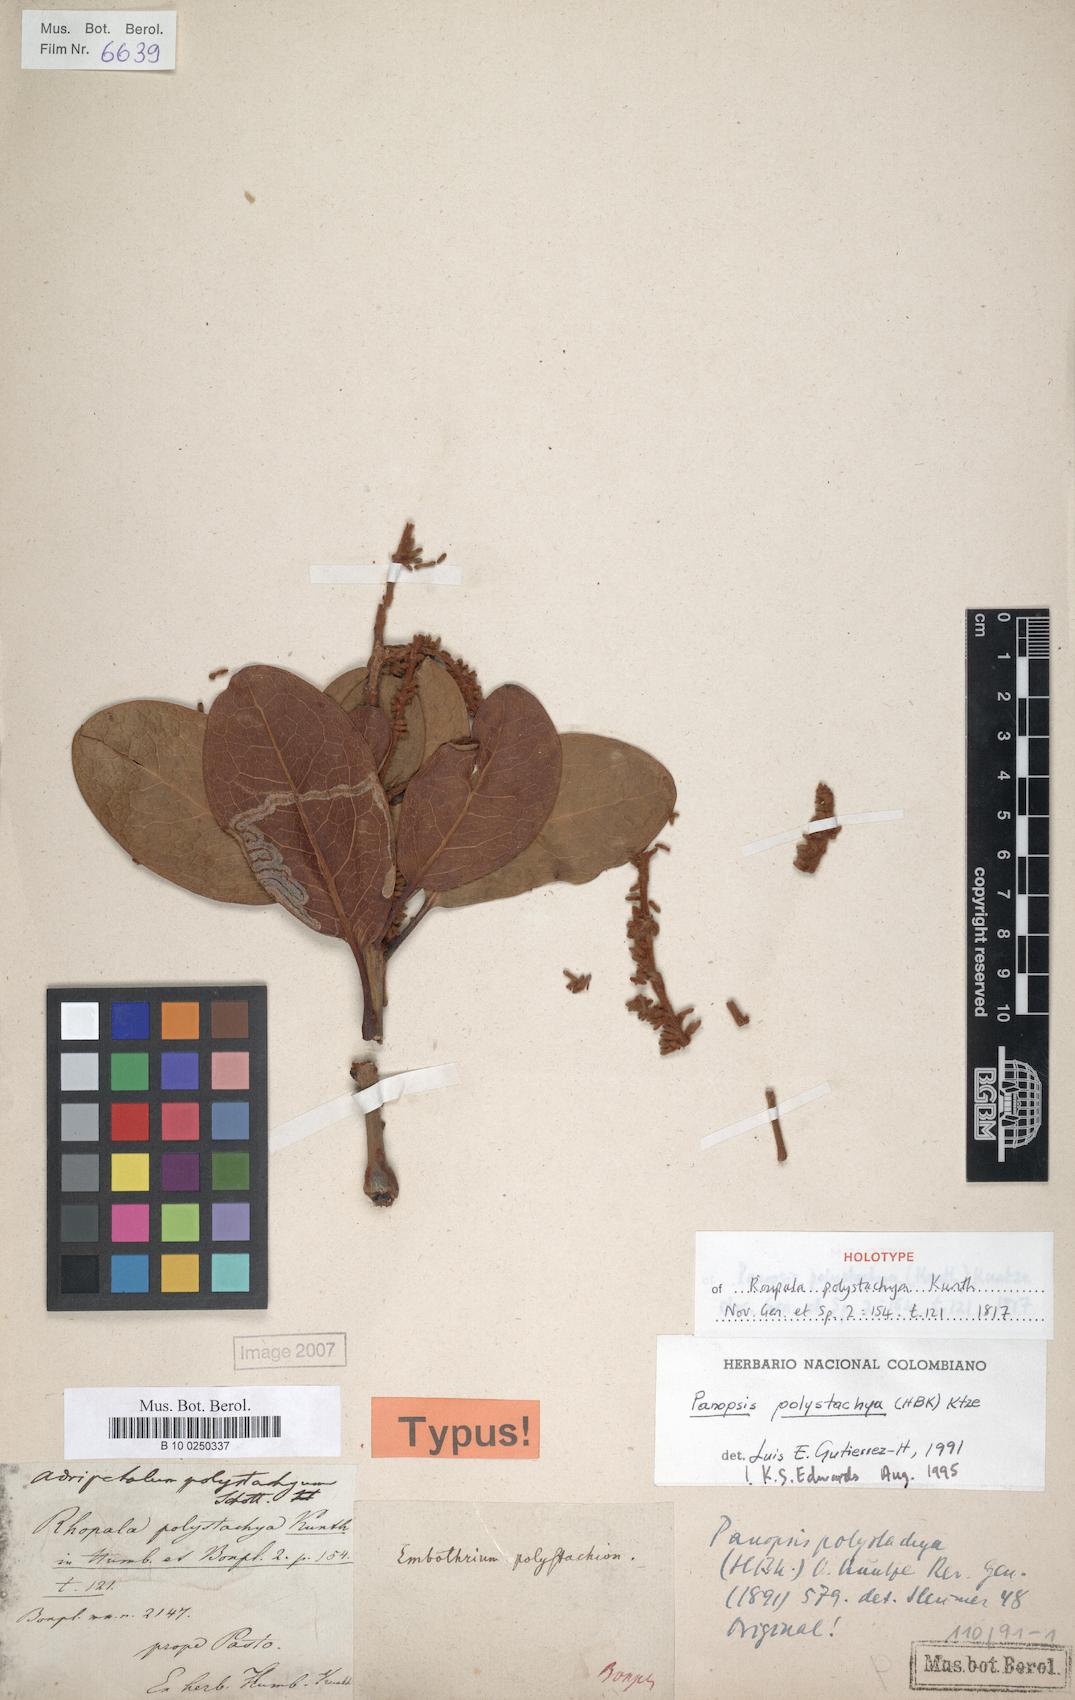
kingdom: Plantae
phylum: Tracheophyta
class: Magnoliopsida
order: Proteales
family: Proteaceae
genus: Panopsis
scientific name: Panopsis polystachya
